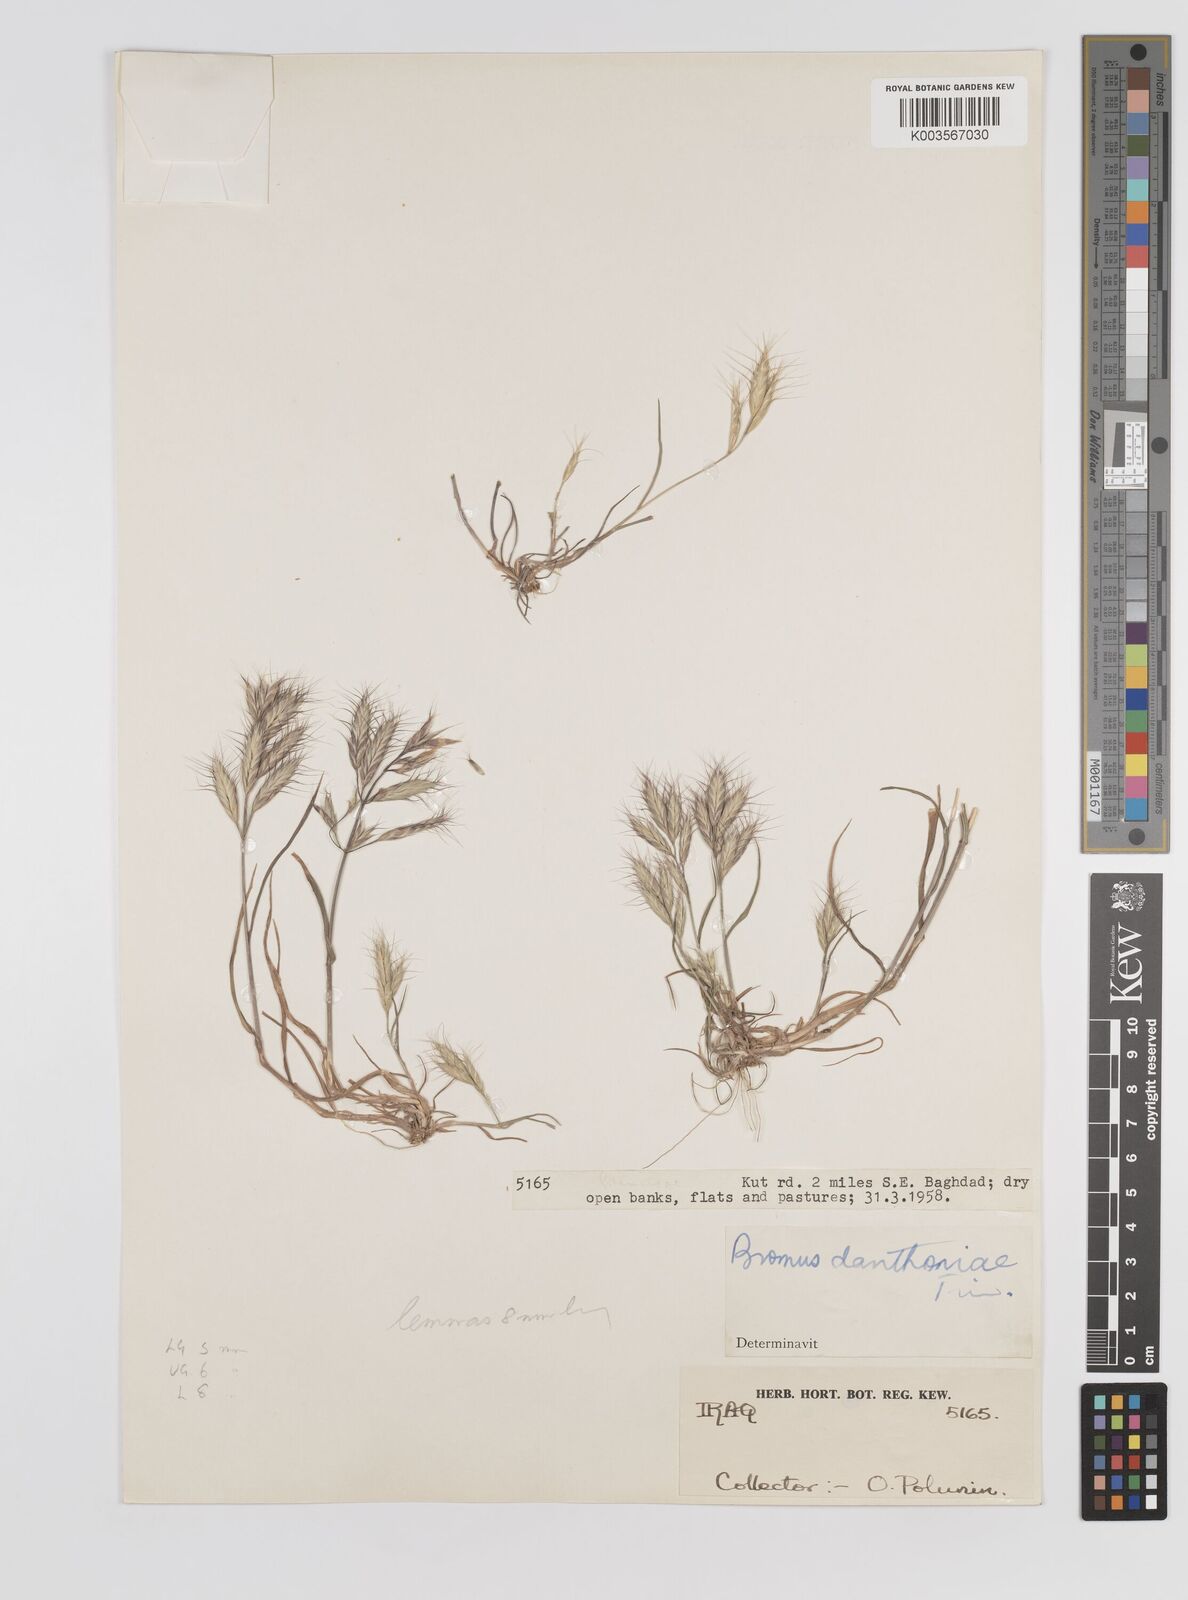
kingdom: Plantae
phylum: Tracheophyta
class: Liliopsida
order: Poales
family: Poaceae
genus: Bromus
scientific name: Bromus danthoniae
